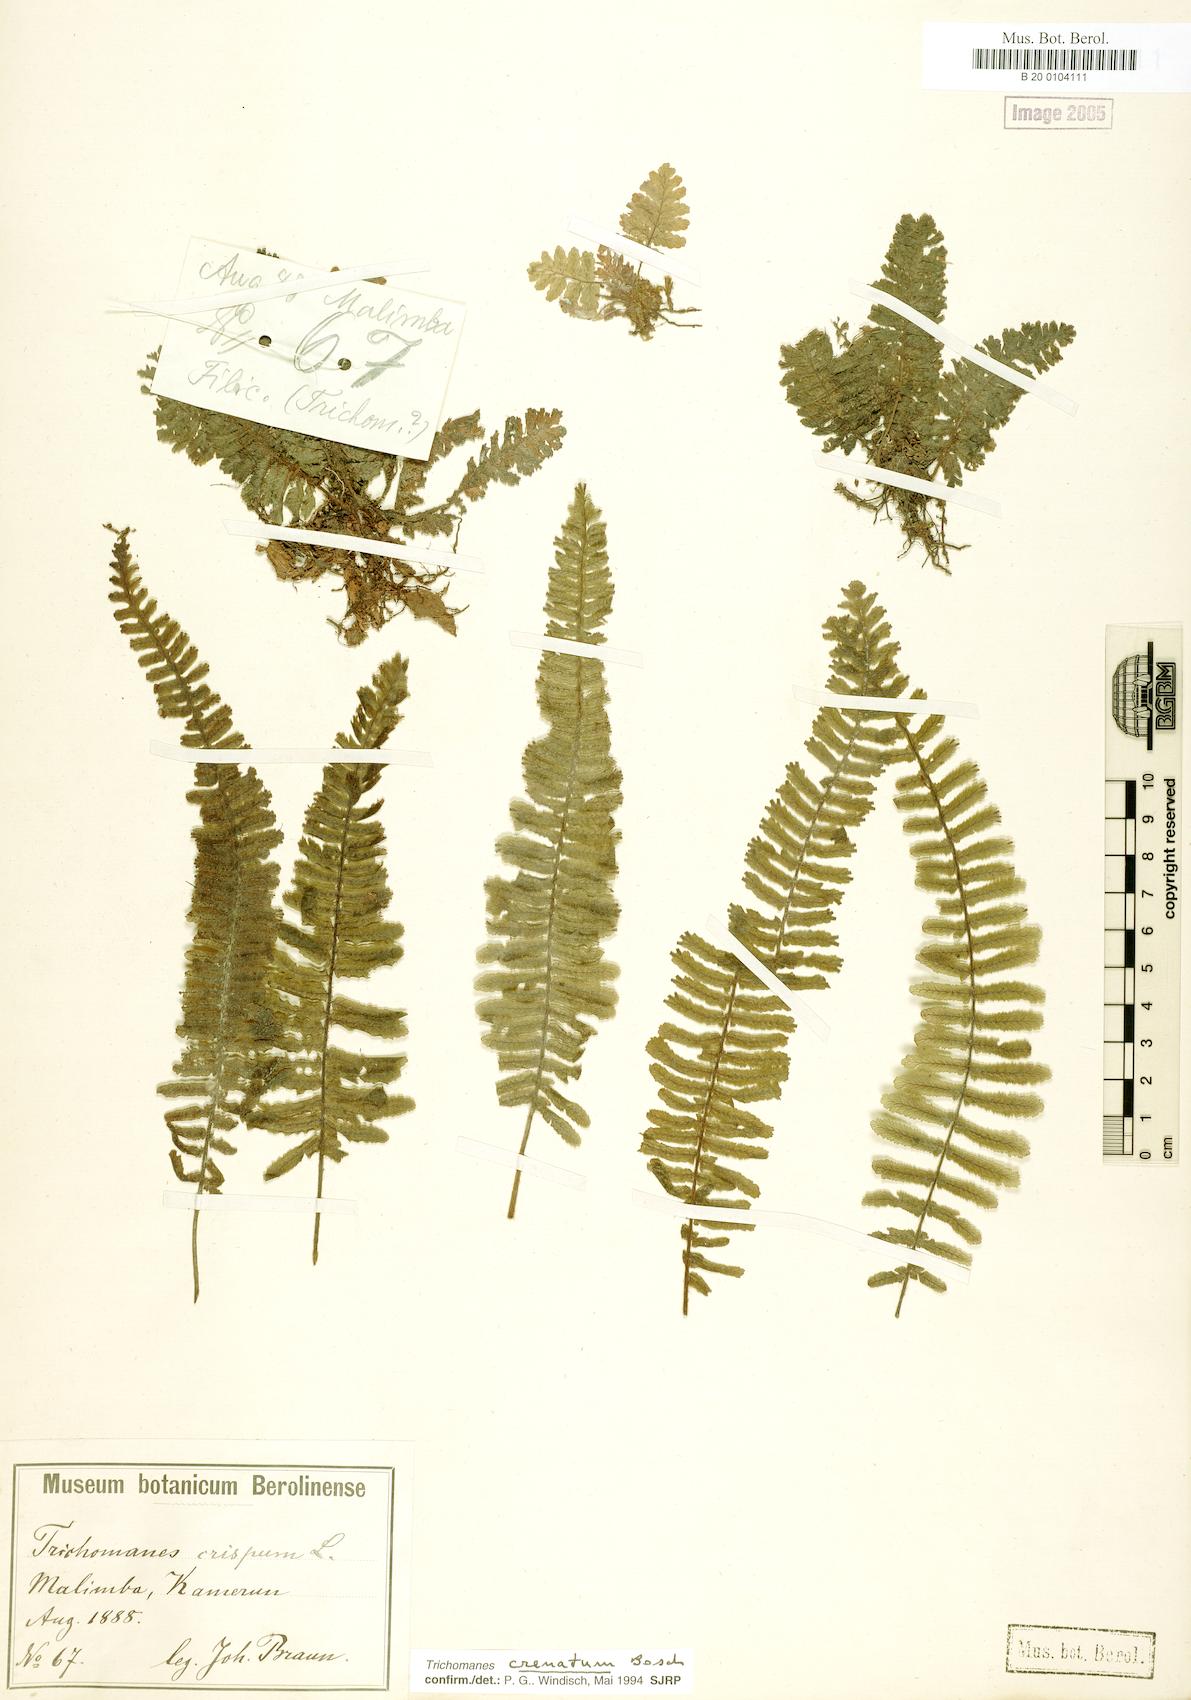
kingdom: Plantae
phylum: Tracheophyta
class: Polypodiopsida
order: Hymenophyllales
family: Hymenophyllaceae
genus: Trichomanes
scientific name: Trichomanes crispiforme
